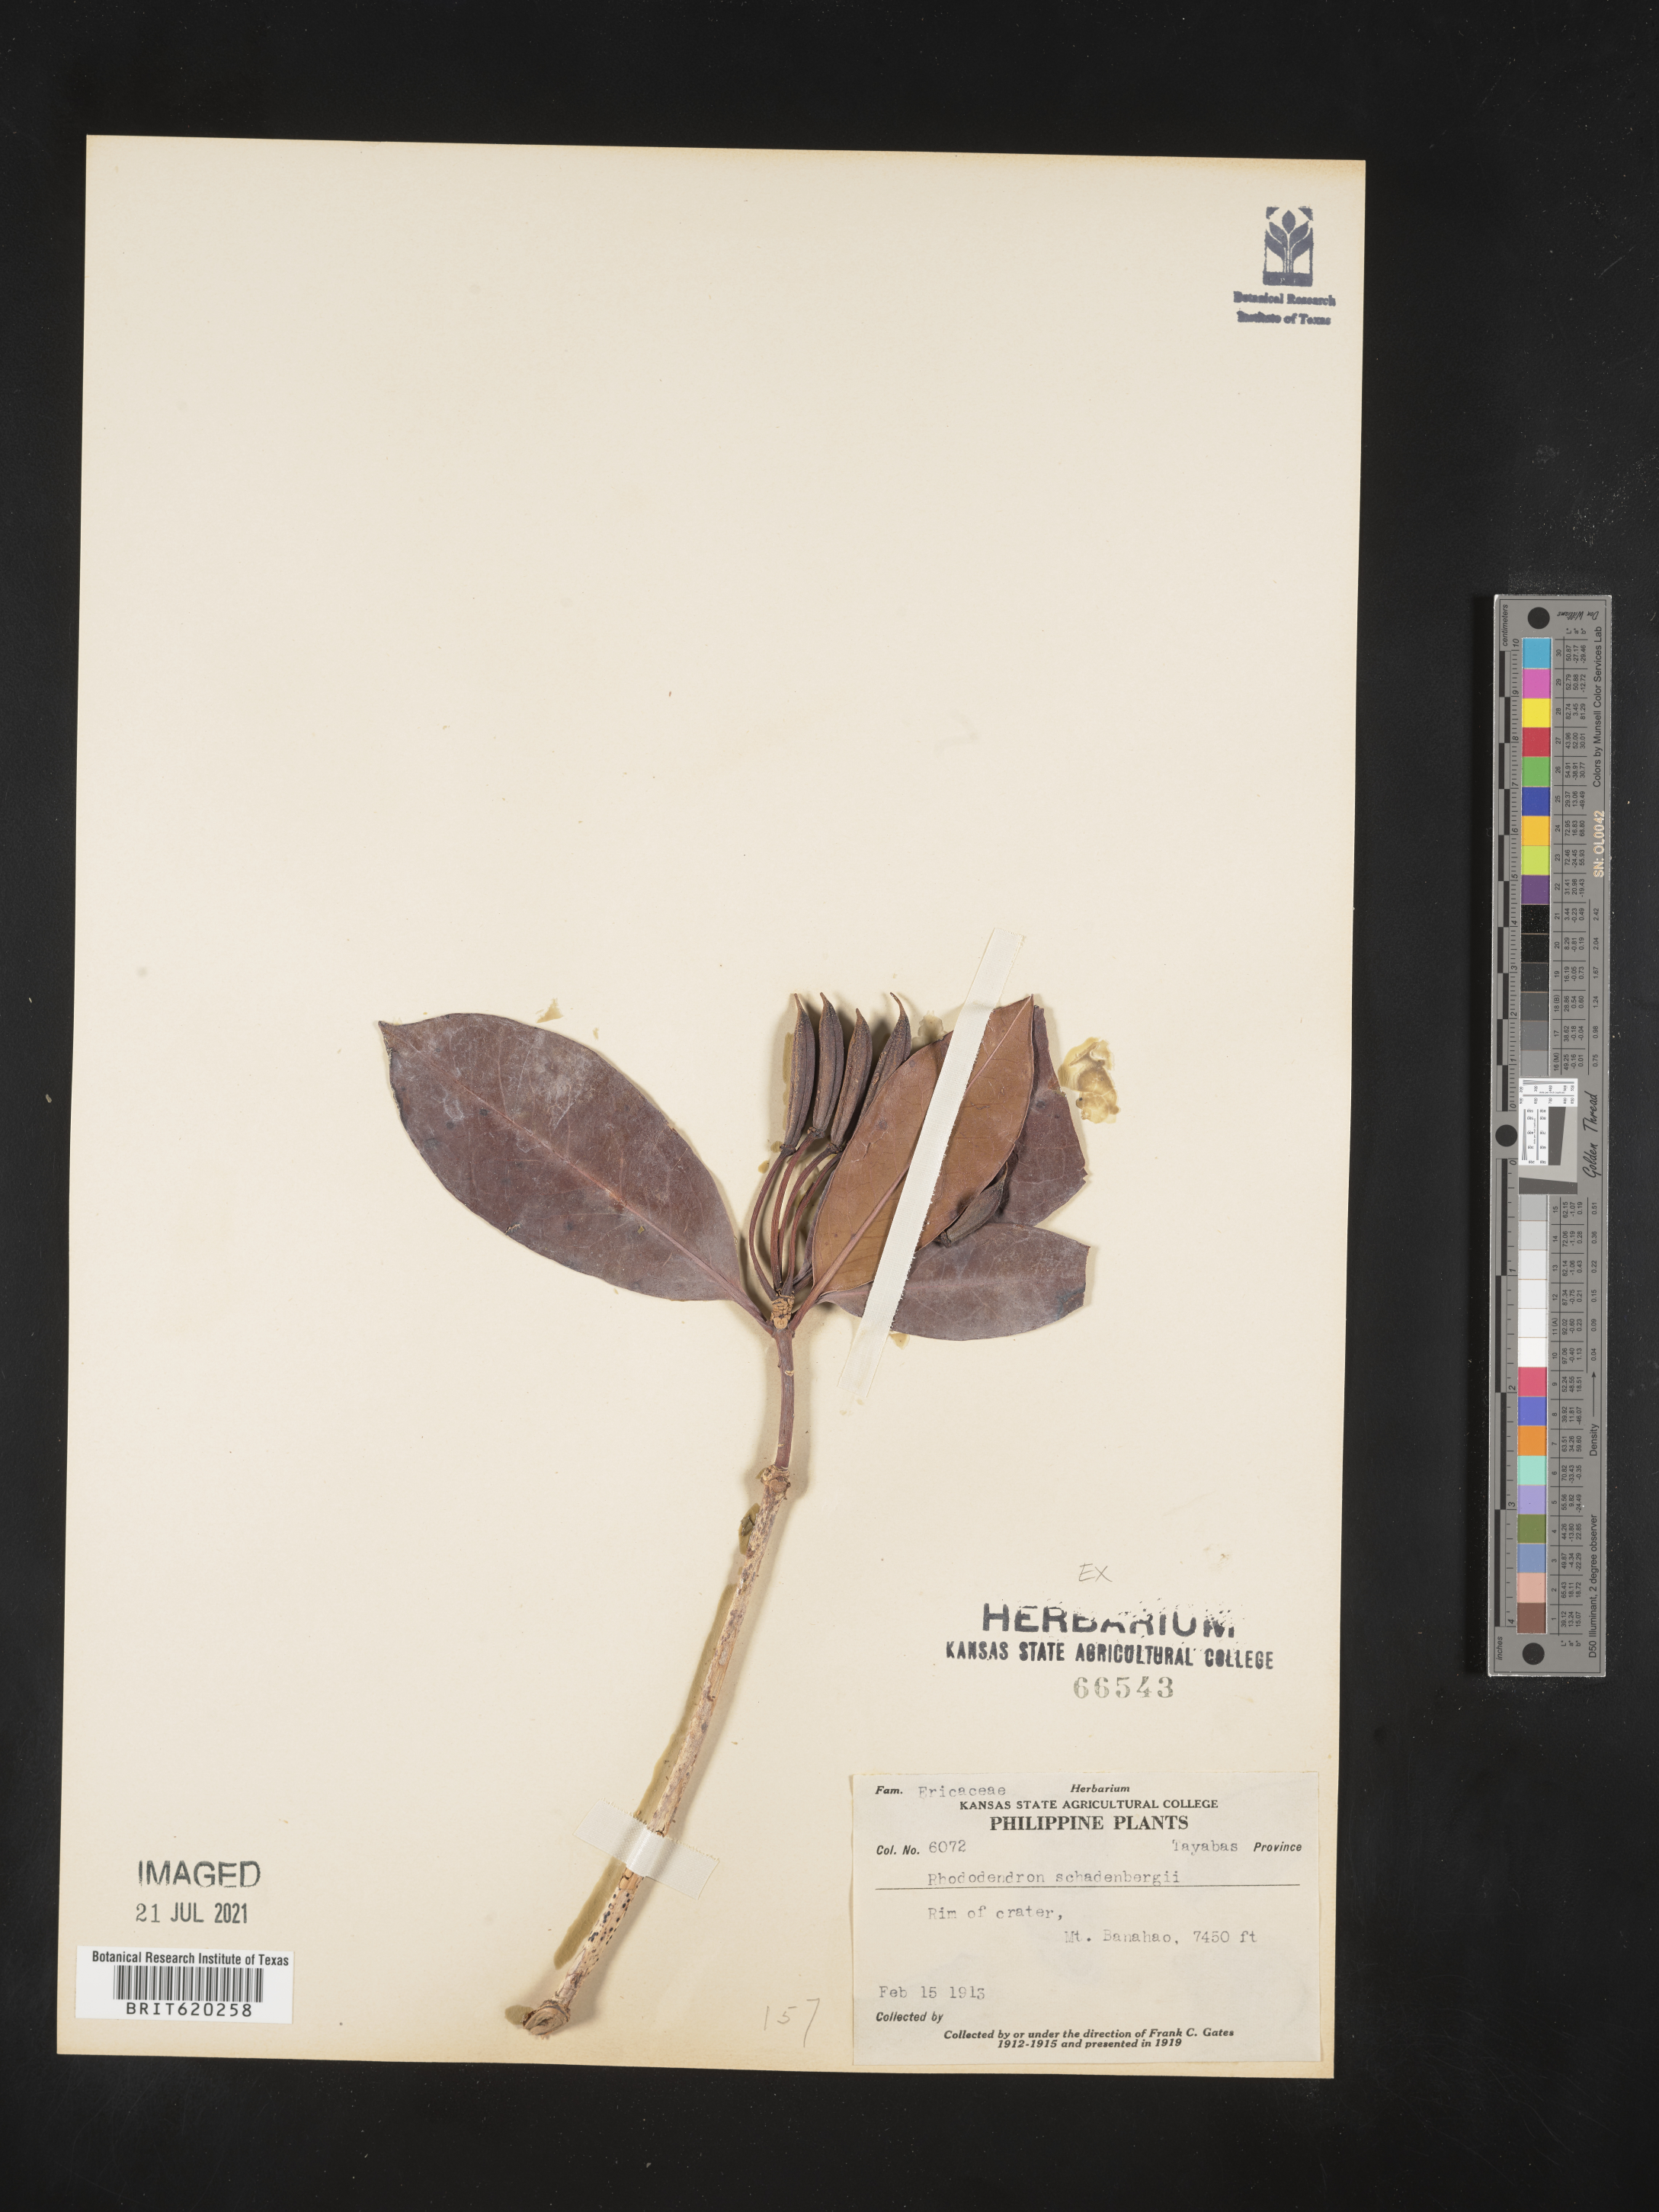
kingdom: Plantae
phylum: Tracheophyta
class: Magnoliopsida
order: Ericales
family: Ericaceae
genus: Rhododendron
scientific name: Rhododendron javanicum
